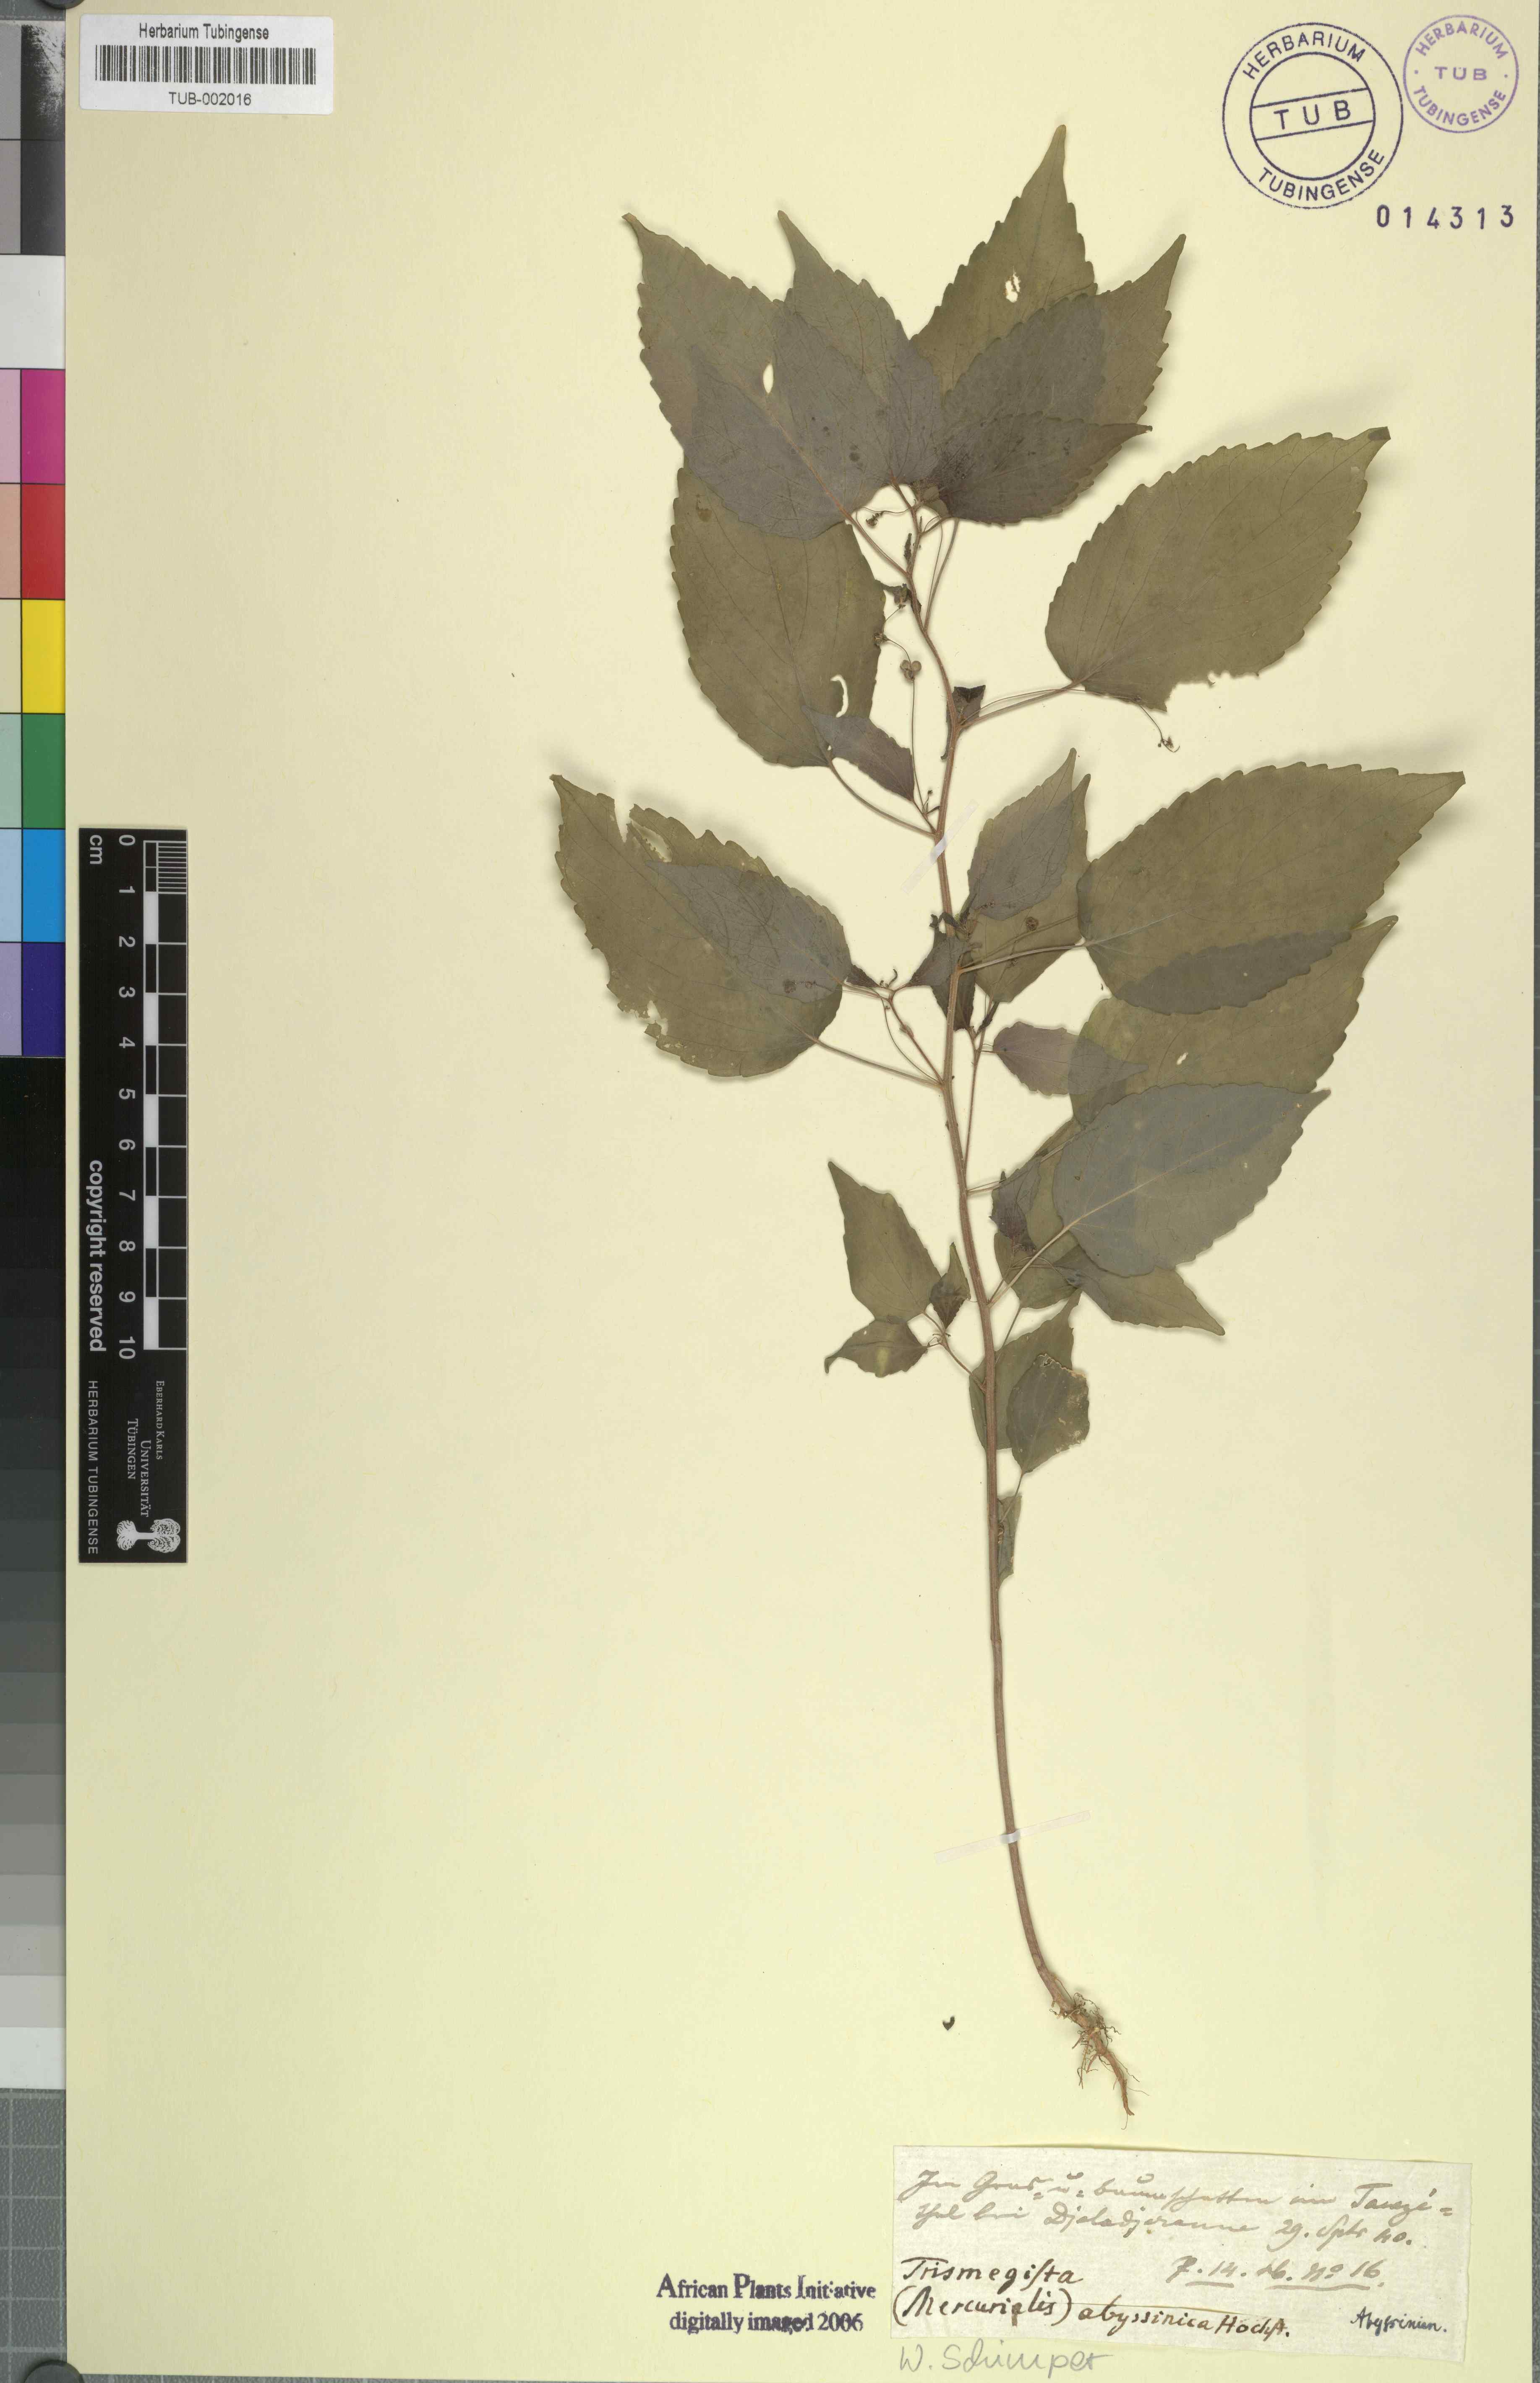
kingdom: Plantae
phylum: Tracheophyta
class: Magnoliopsida
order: Malpighiales
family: Euphorbiaceae
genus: Micrococca
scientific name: Micrococca mercurialis
